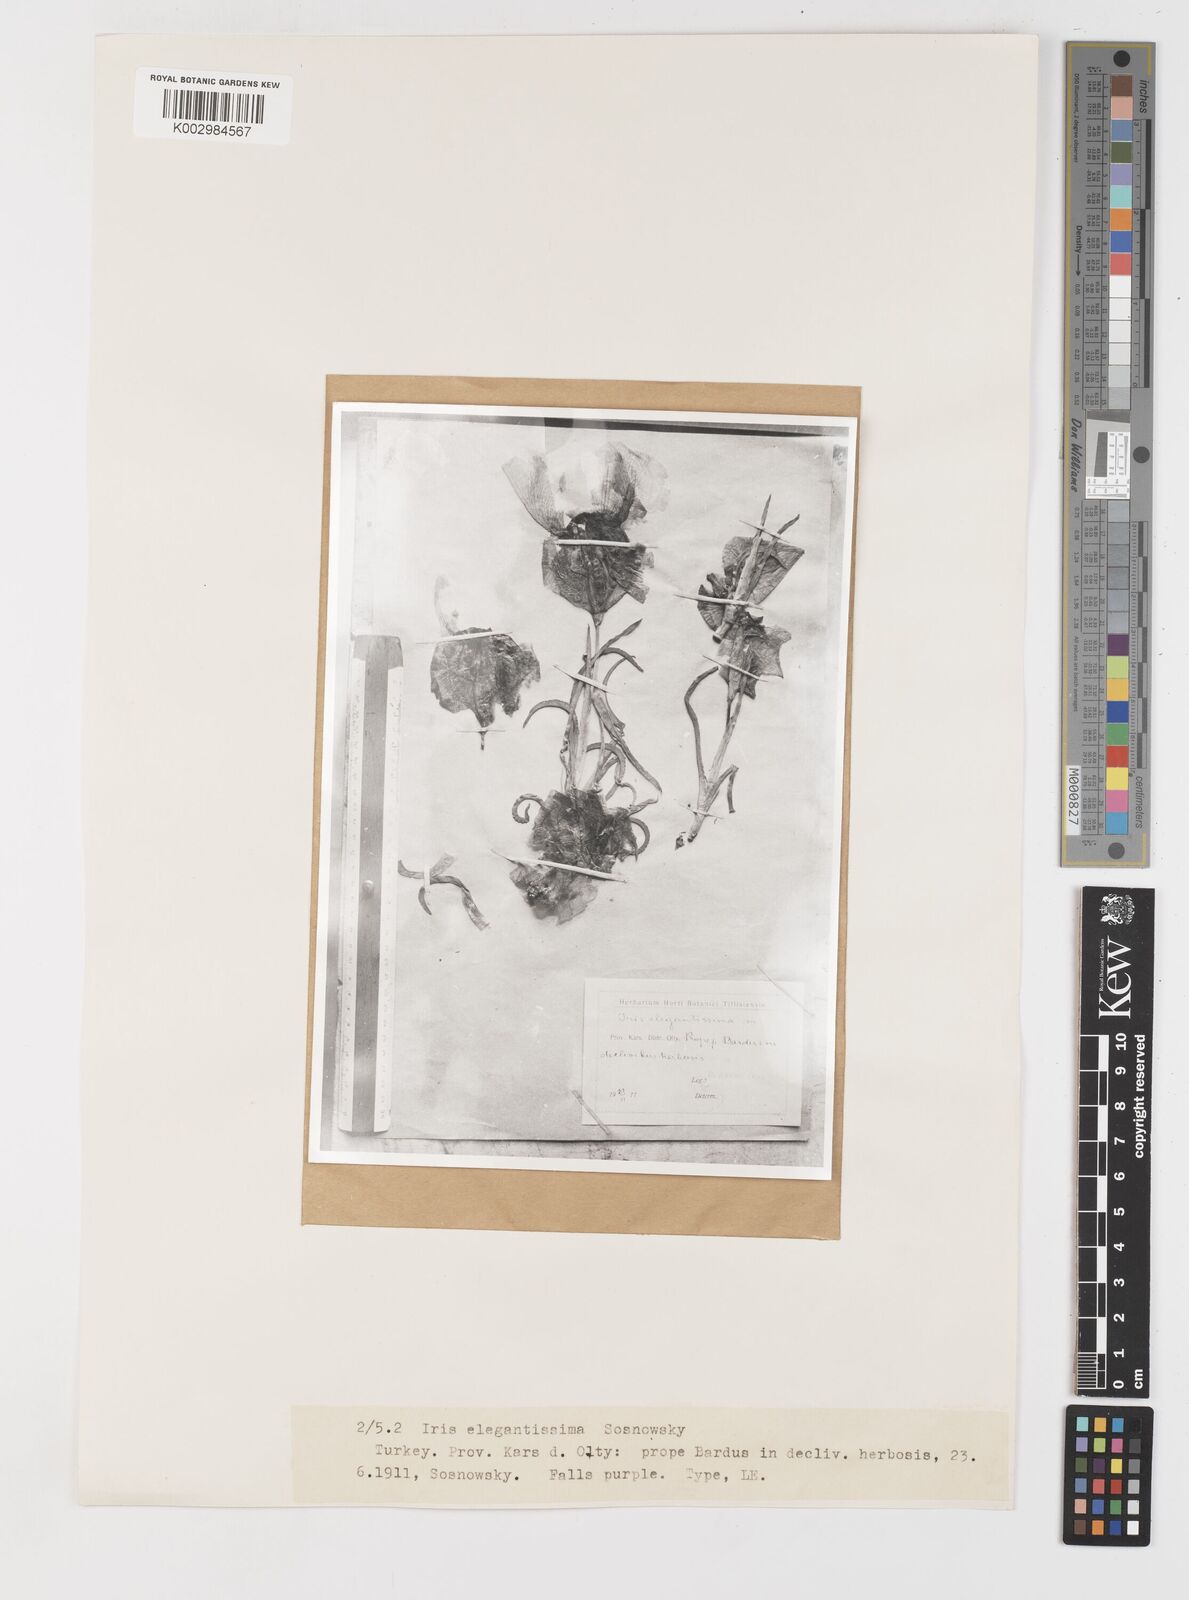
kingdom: Plantae
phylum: Tracheophyta
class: Liliopsida
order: Asparagales
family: Iridaceae
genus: Iris
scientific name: Iris iberica
